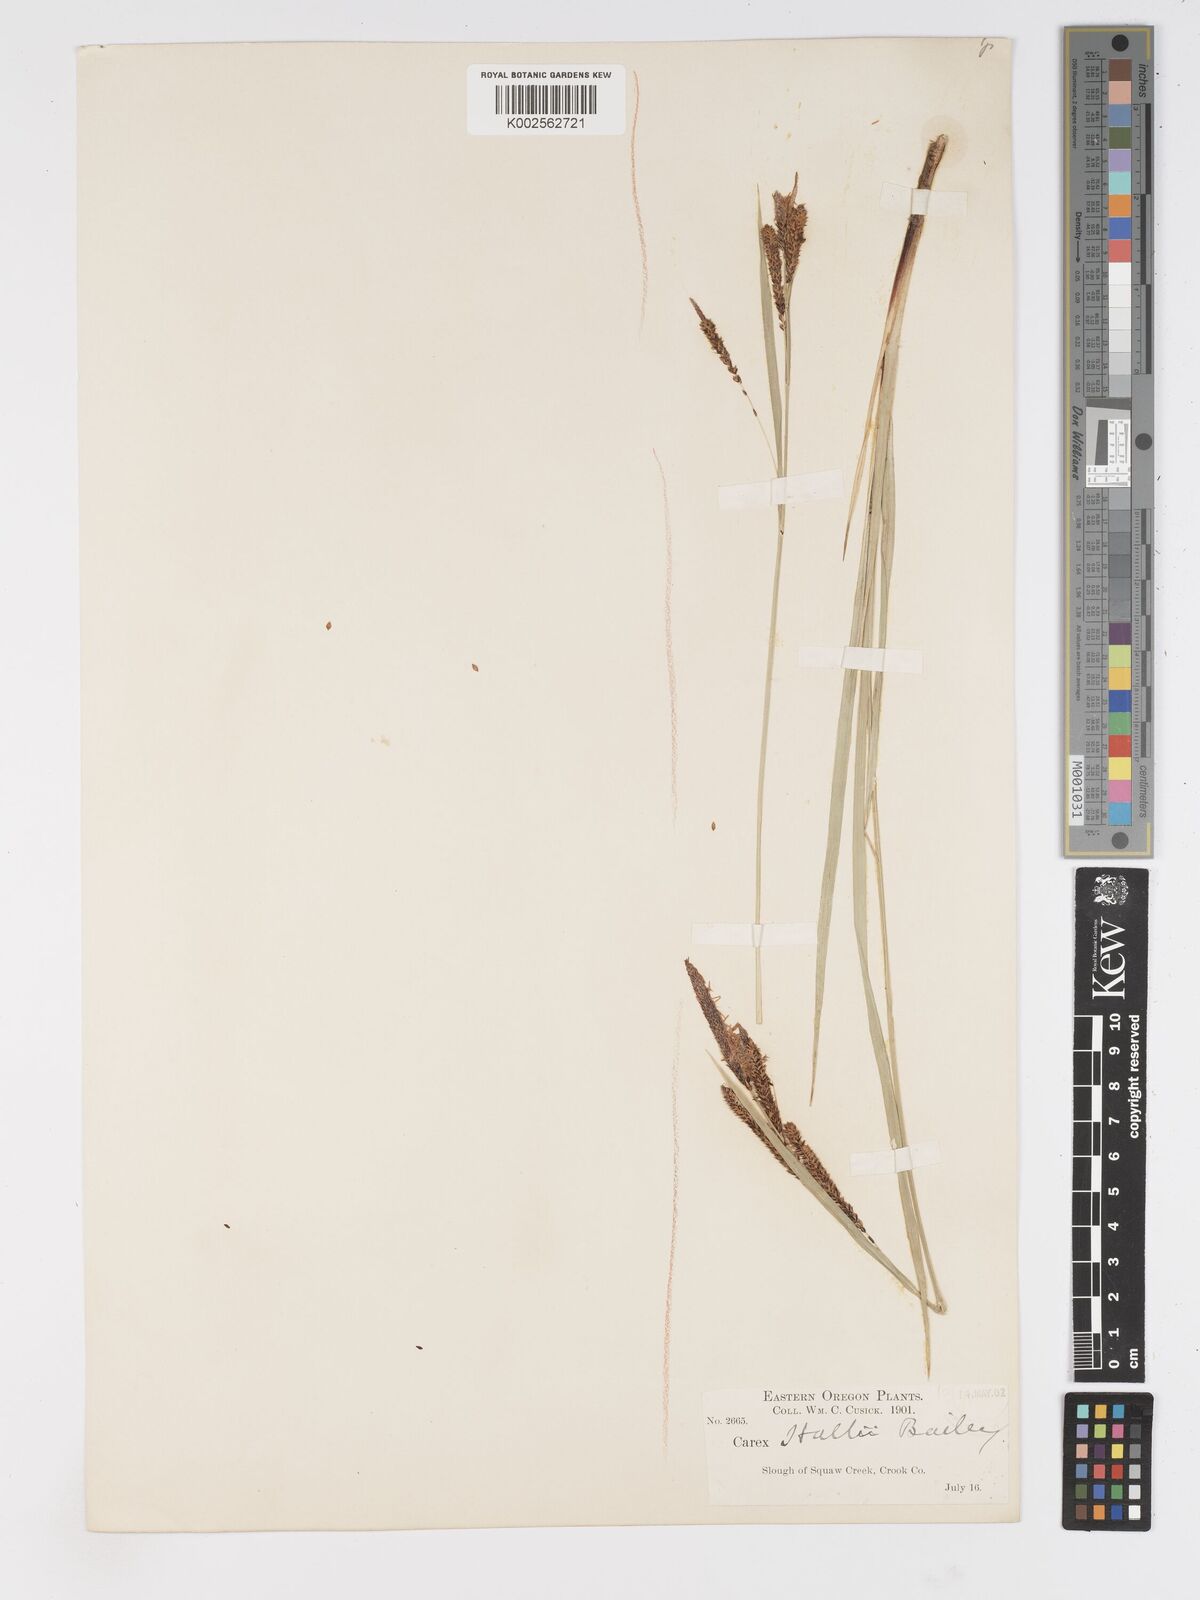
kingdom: Plantae
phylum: Tracheophyta
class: Liliopsida
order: Poales
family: Cyperaceae
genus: Carex
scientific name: Carex nudata
